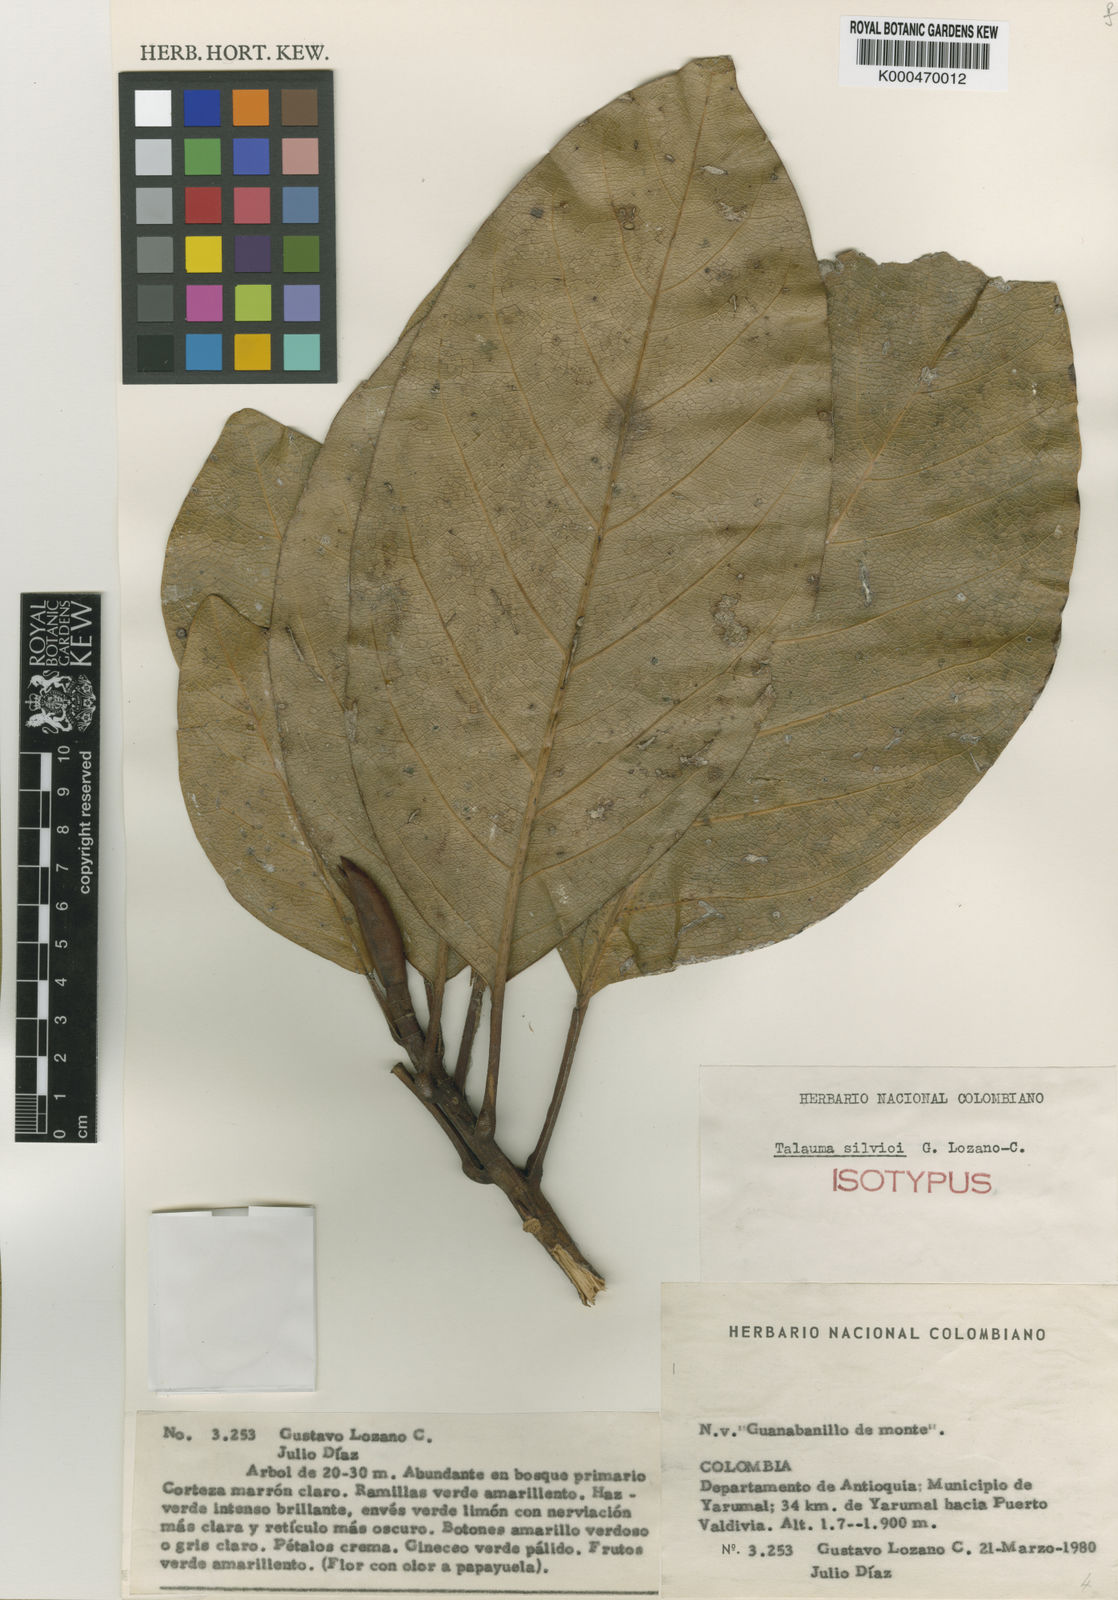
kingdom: Plantae
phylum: Tracheophyta
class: Magnoliopsida
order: Magnoliales
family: Magnoliaceae
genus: Magnolia
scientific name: Magnolia silvioi
